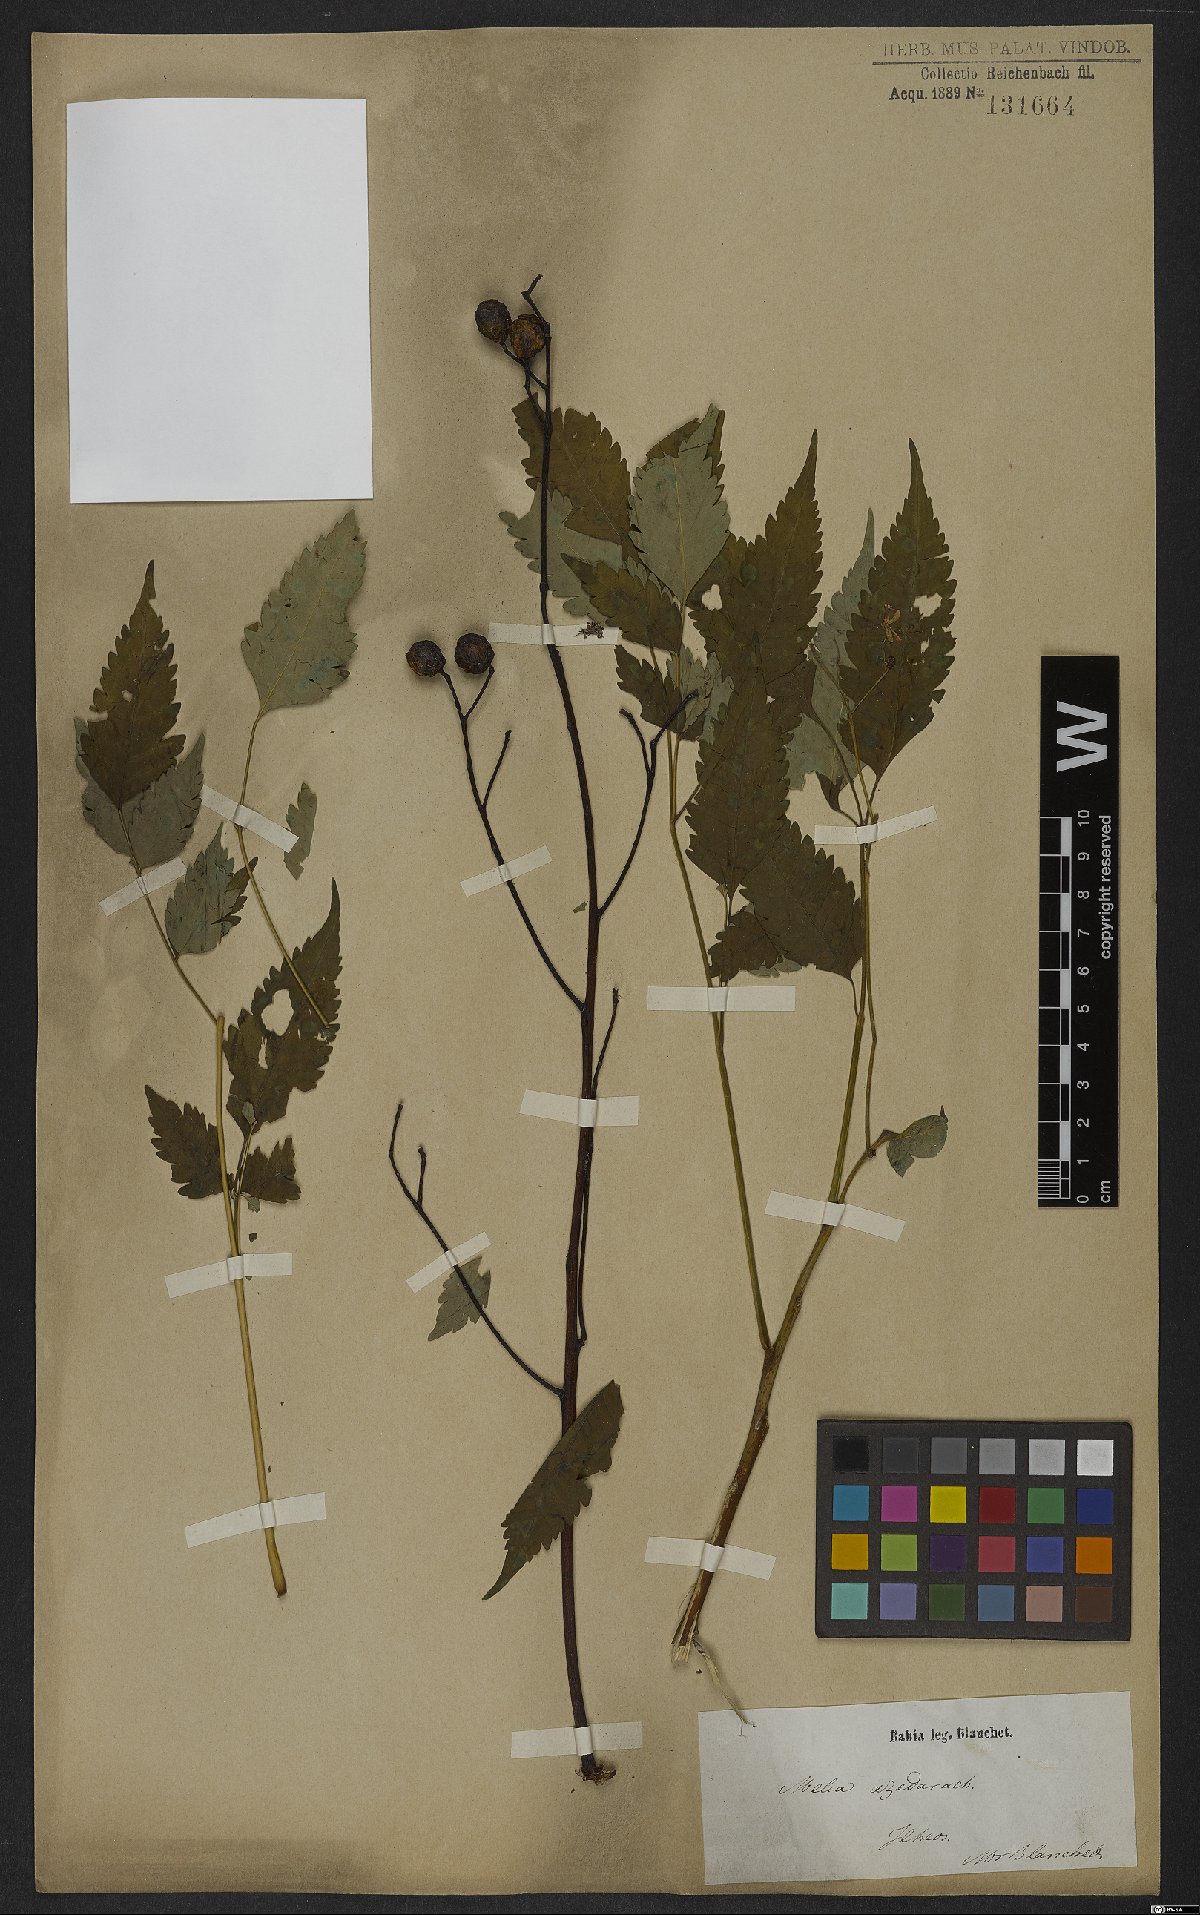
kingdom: Plantae
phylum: Tracheophyta
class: Magnoliopsida
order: Sapindales
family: Meliaceae
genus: Melia
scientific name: Melia azedarach
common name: Chinaberrytree
